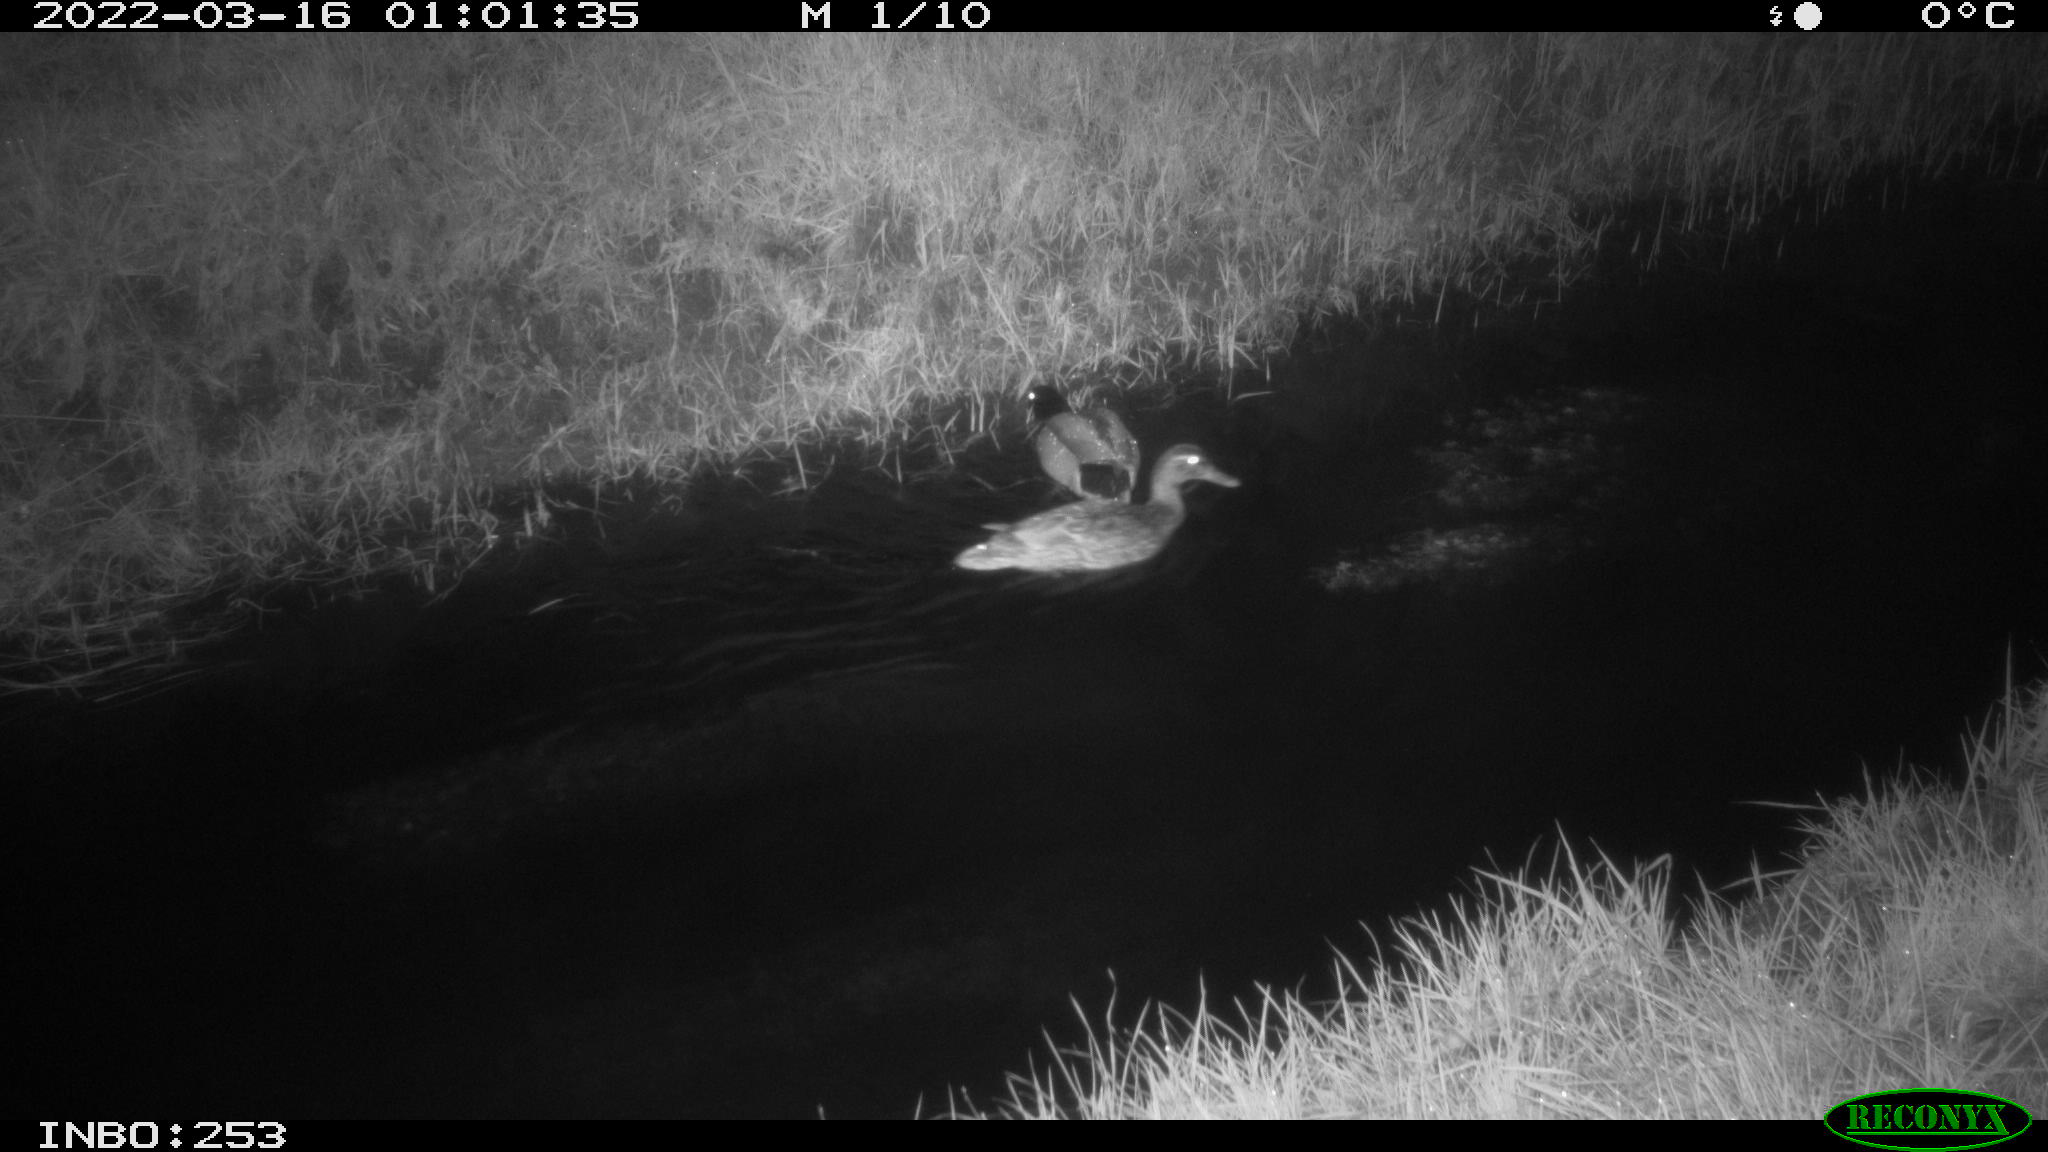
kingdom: Animalia
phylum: Chordata
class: Aves
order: Anseriformes
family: Anatidae
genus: Anas
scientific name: Anas platyrhynchos
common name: Mallard
